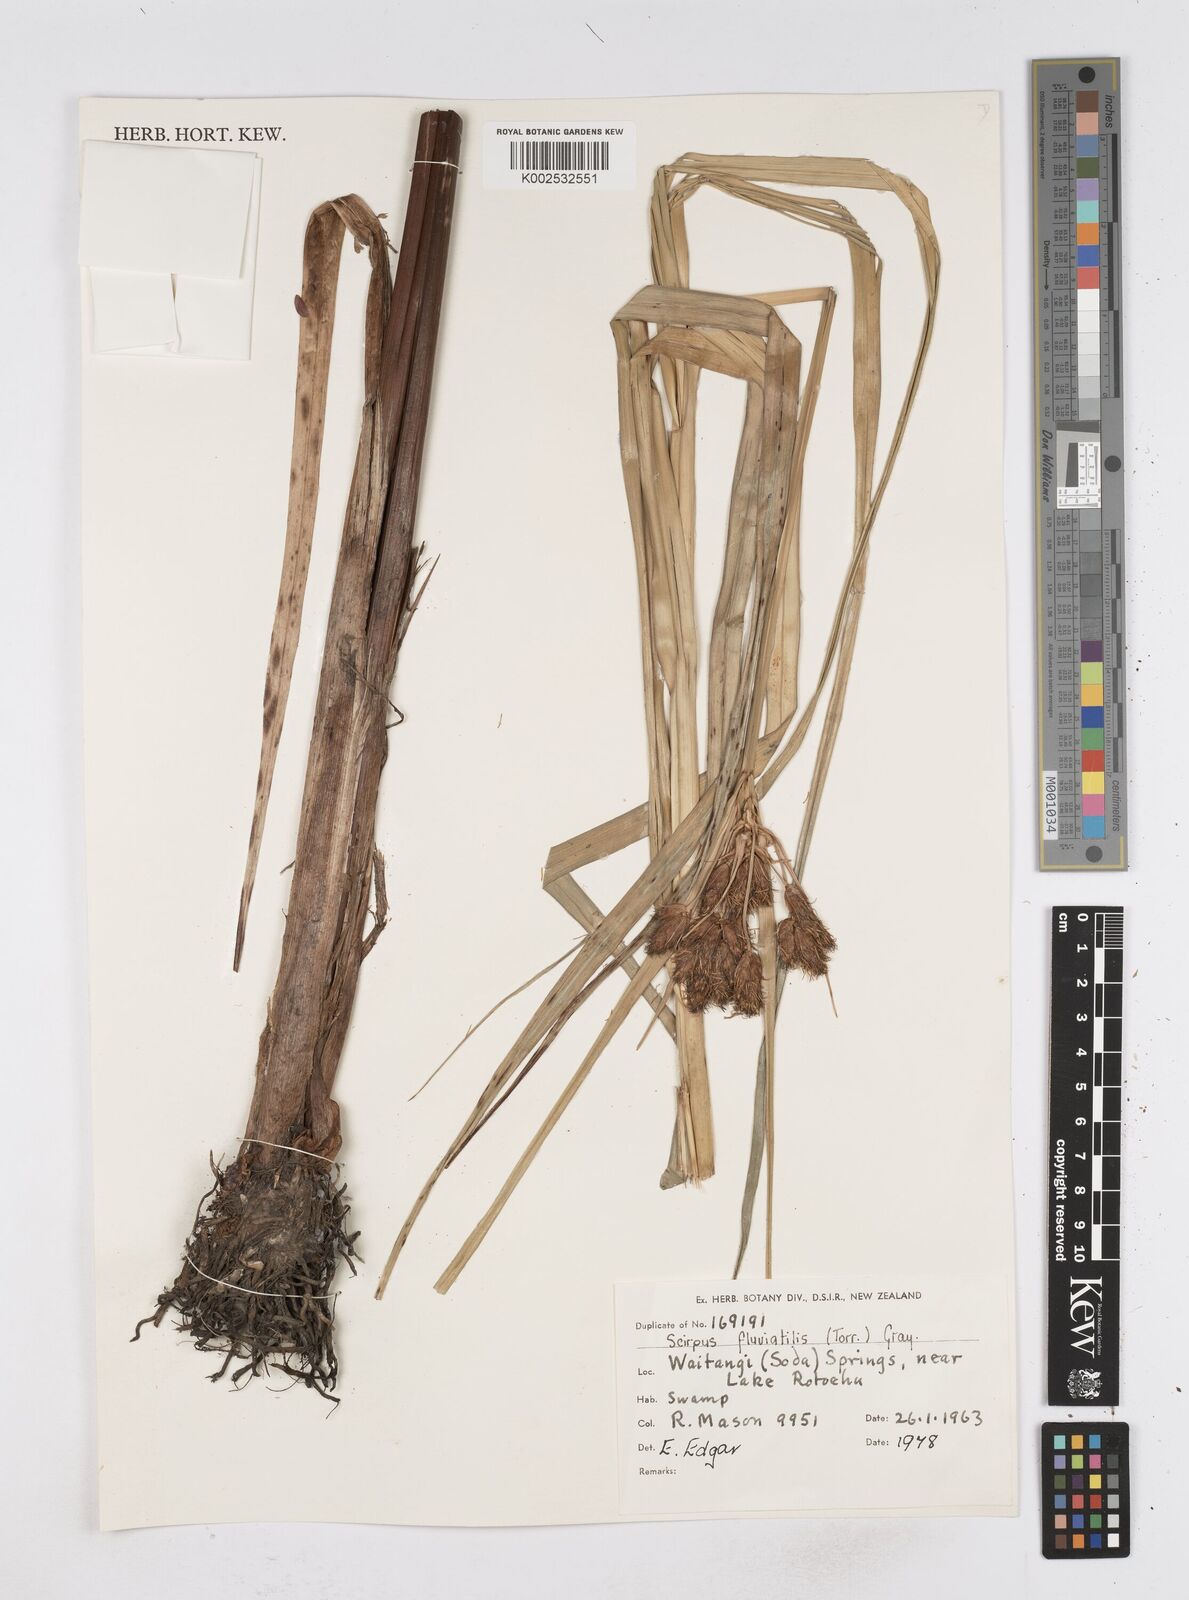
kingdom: Plantae
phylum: Tracheophyta
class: Liliopsida
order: Poales
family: Cyperaceae
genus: Bolboschoenus
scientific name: Bolboschoenus caldwellii
